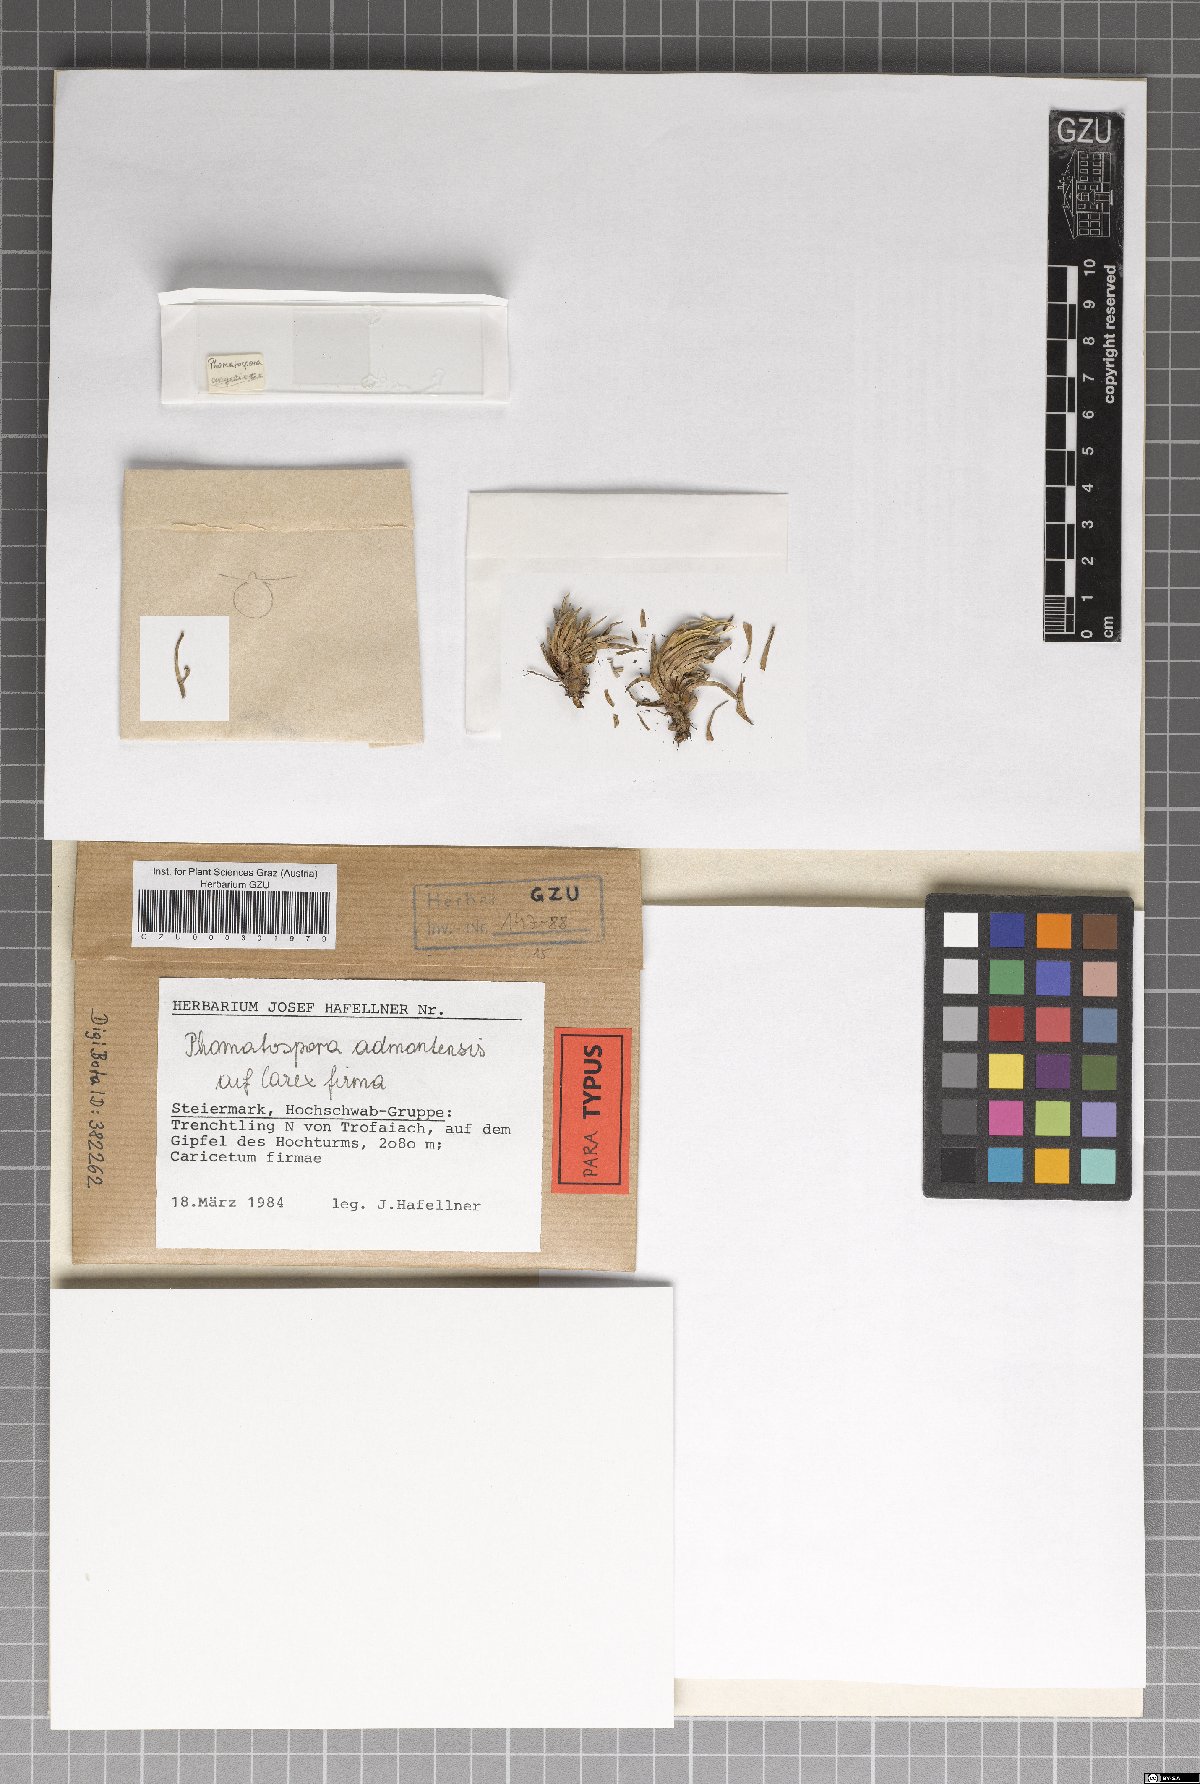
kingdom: Fungi
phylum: Ascomycota
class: Sordariomycetes
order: Phomatosporales
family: Phomatosporaceae
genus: Phomatospora
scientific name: Phomatospora admontensis
